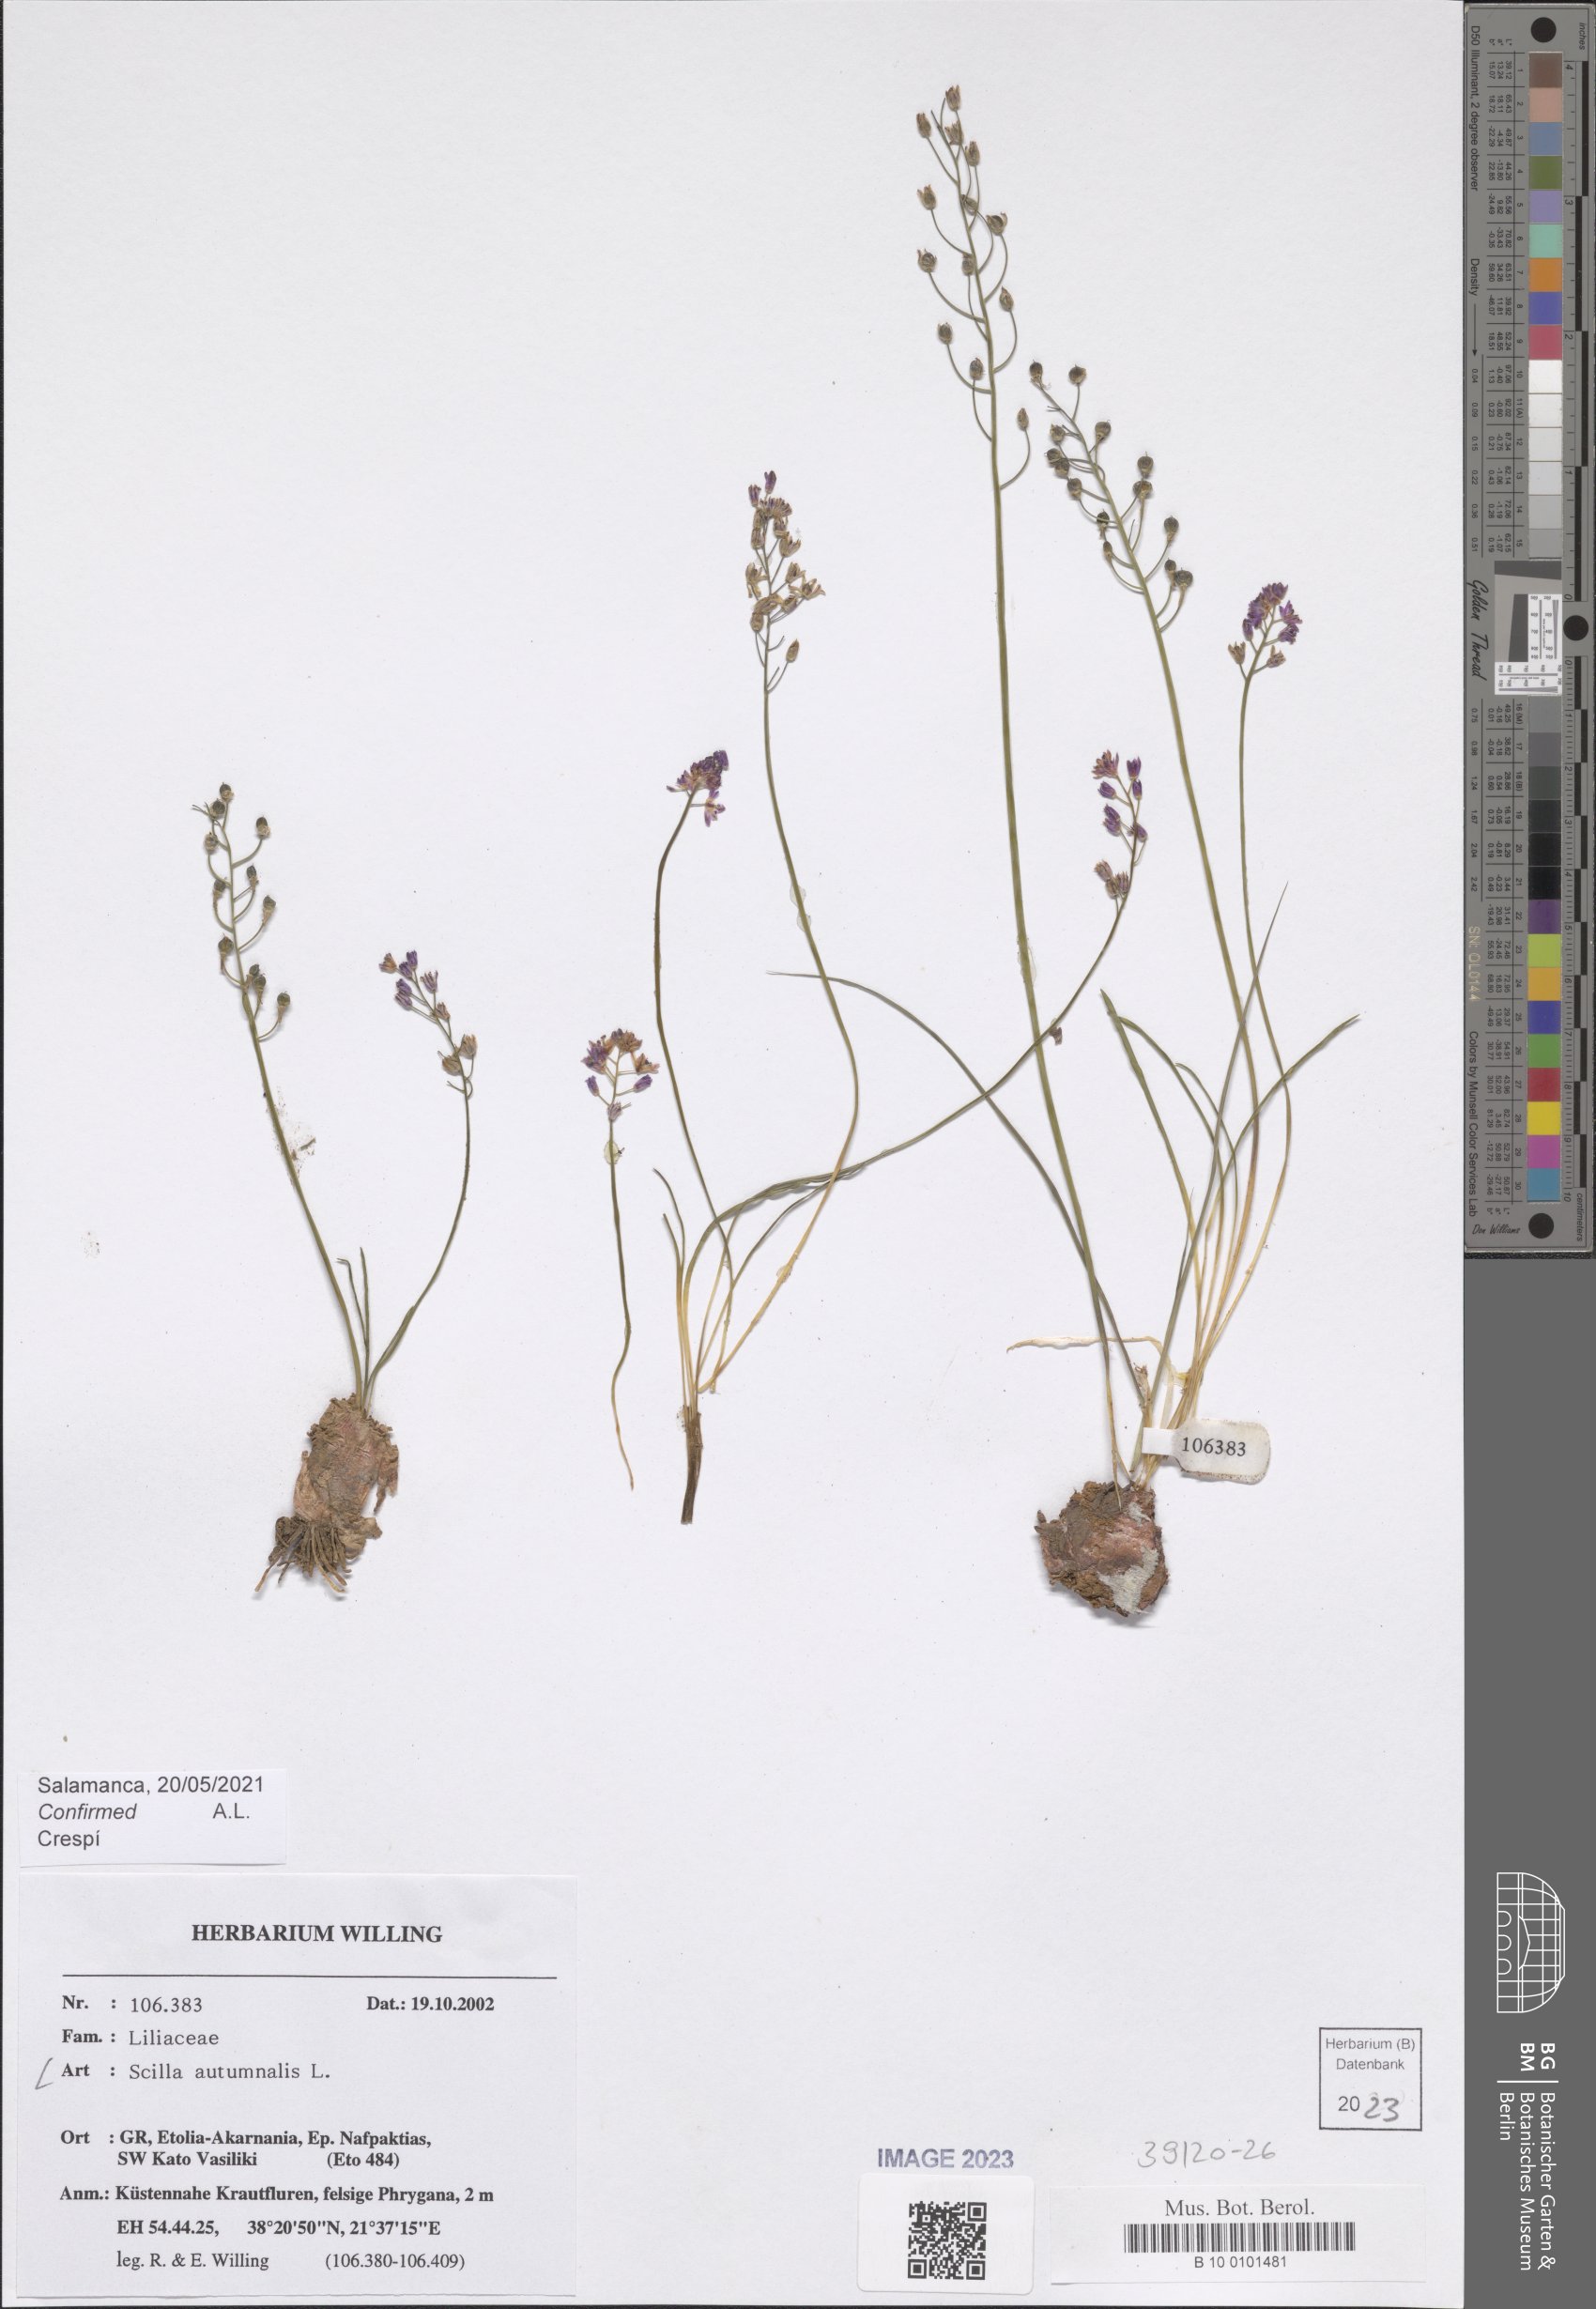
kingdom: Plantae
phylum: Tracheophyta
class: Liliopsida
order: Asparagales
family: Asparagaceae
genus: Prospero
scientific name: Prospero autumnale
